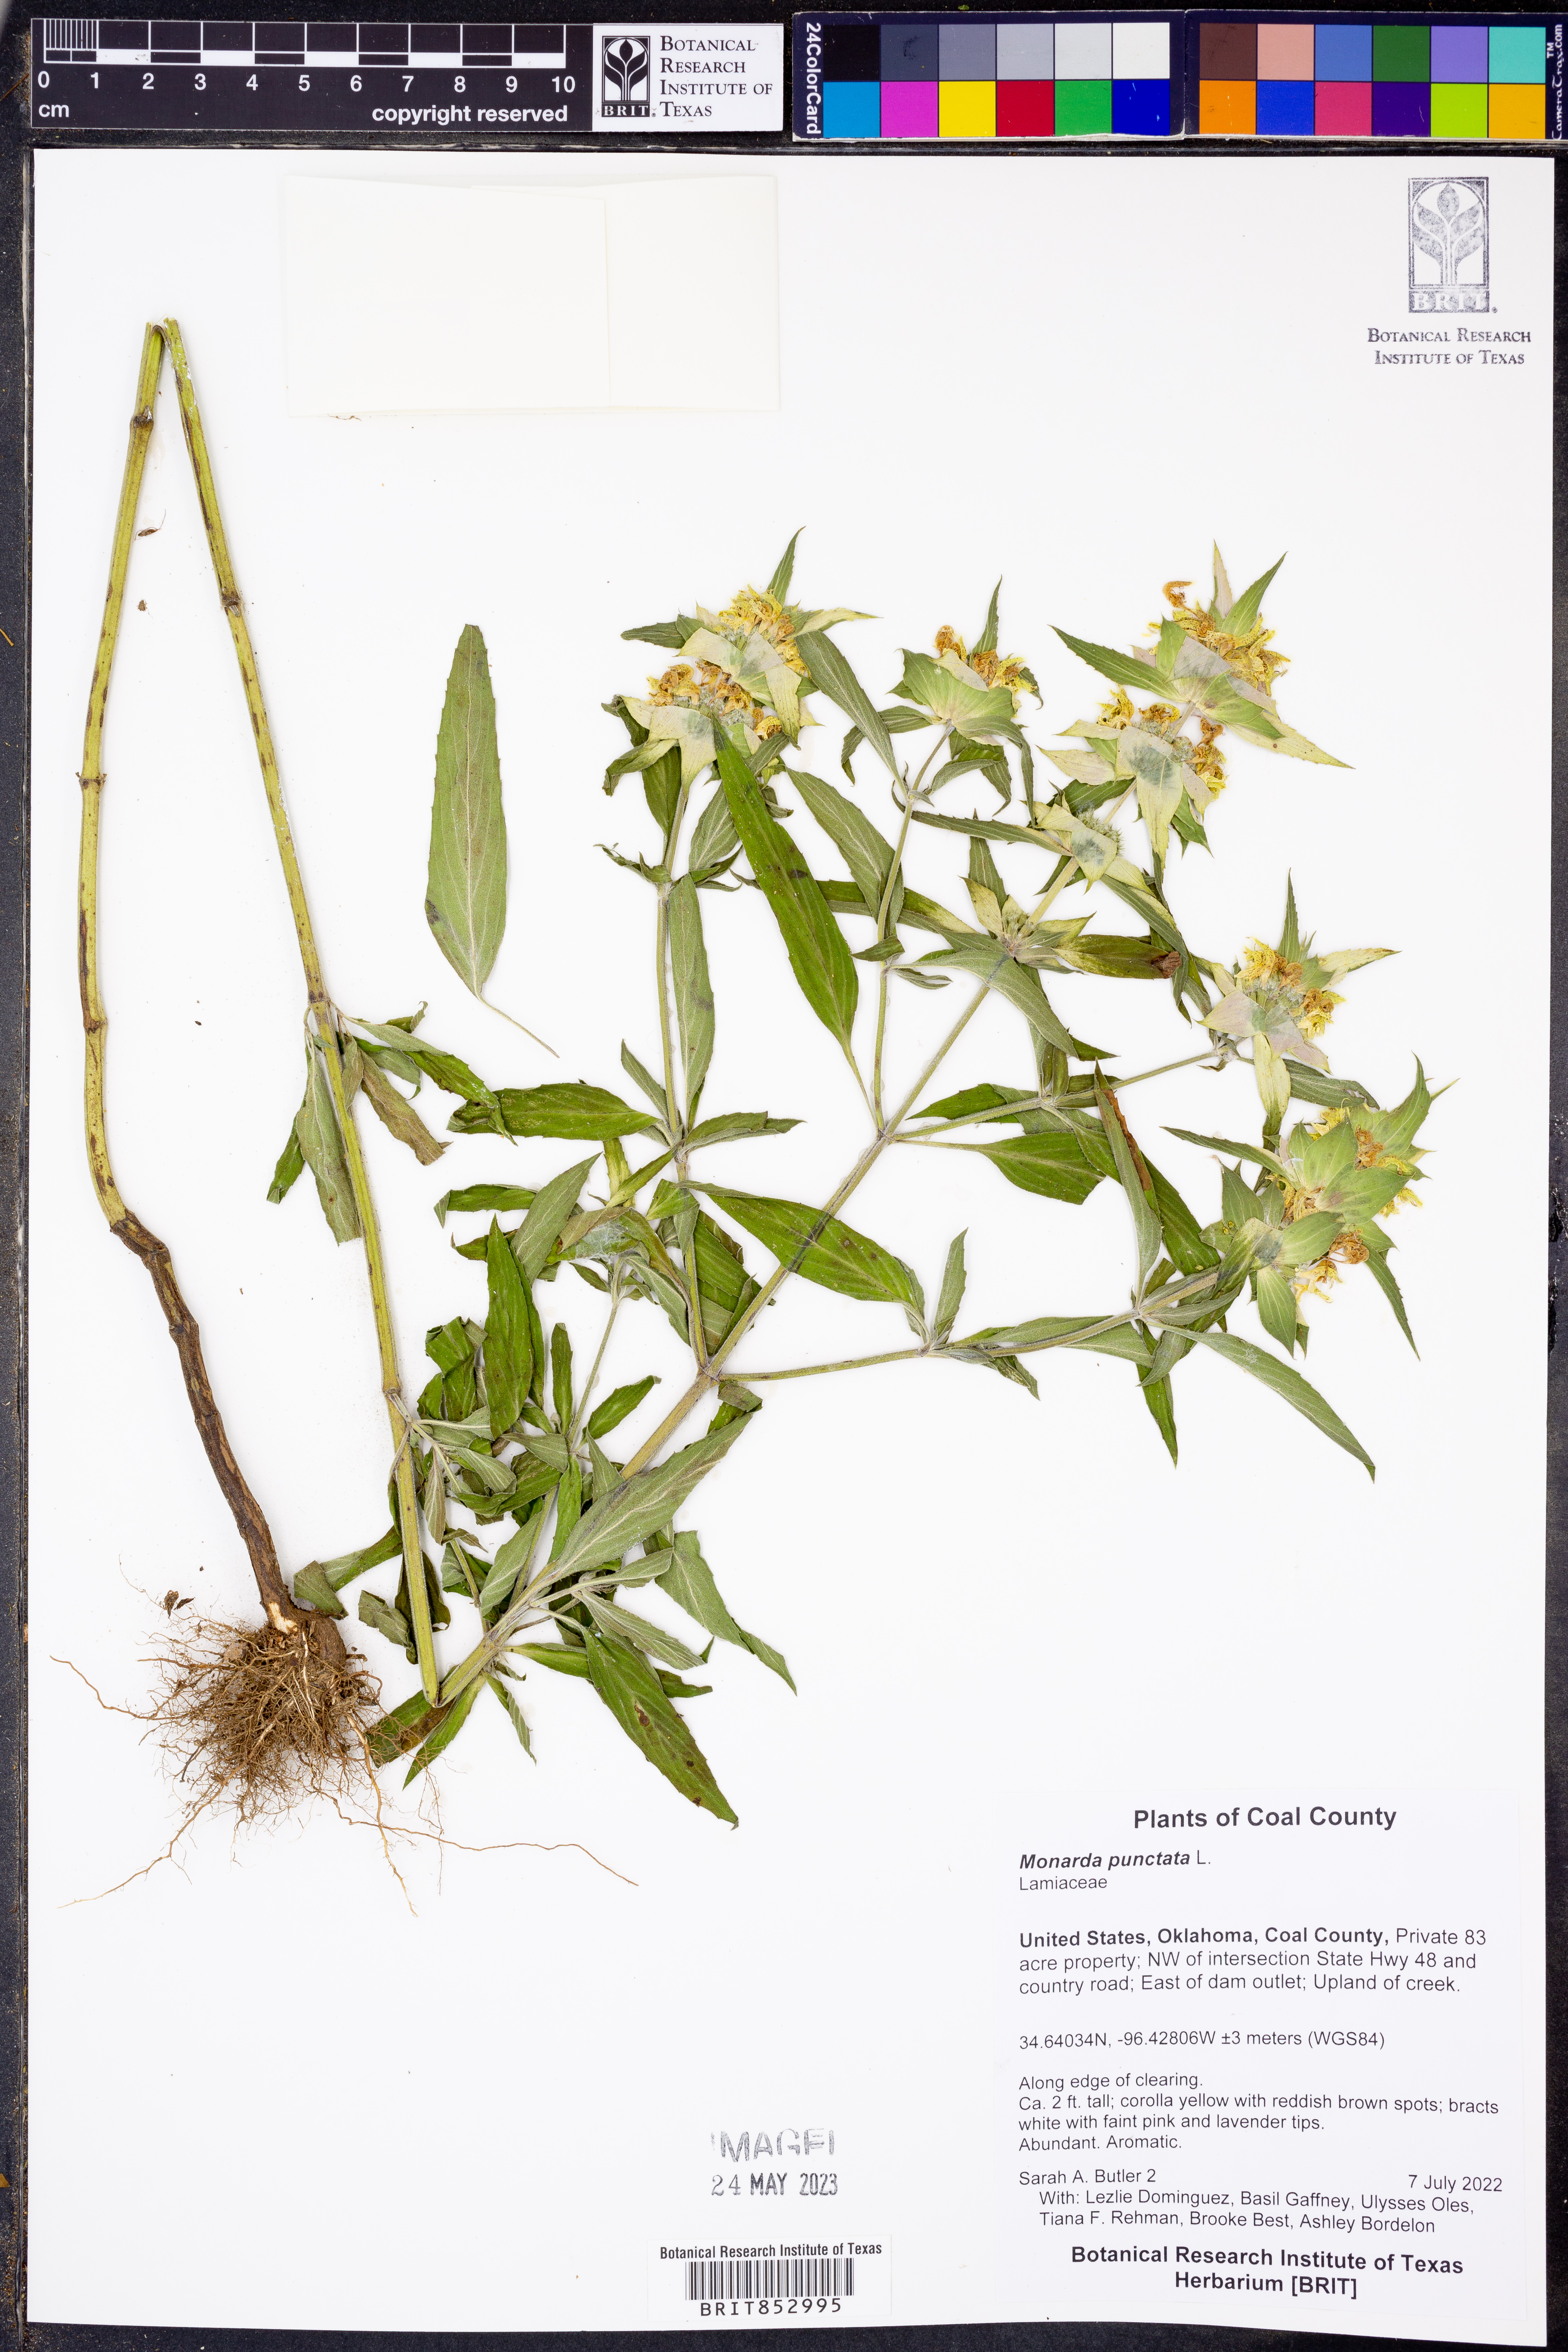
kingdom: Plantae
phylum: Tracheophyta
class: Magnoliopsida
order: Lamiales
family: Lamiaceae
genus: Monarda
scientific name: Monarda punctata
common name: Dotted monarda
